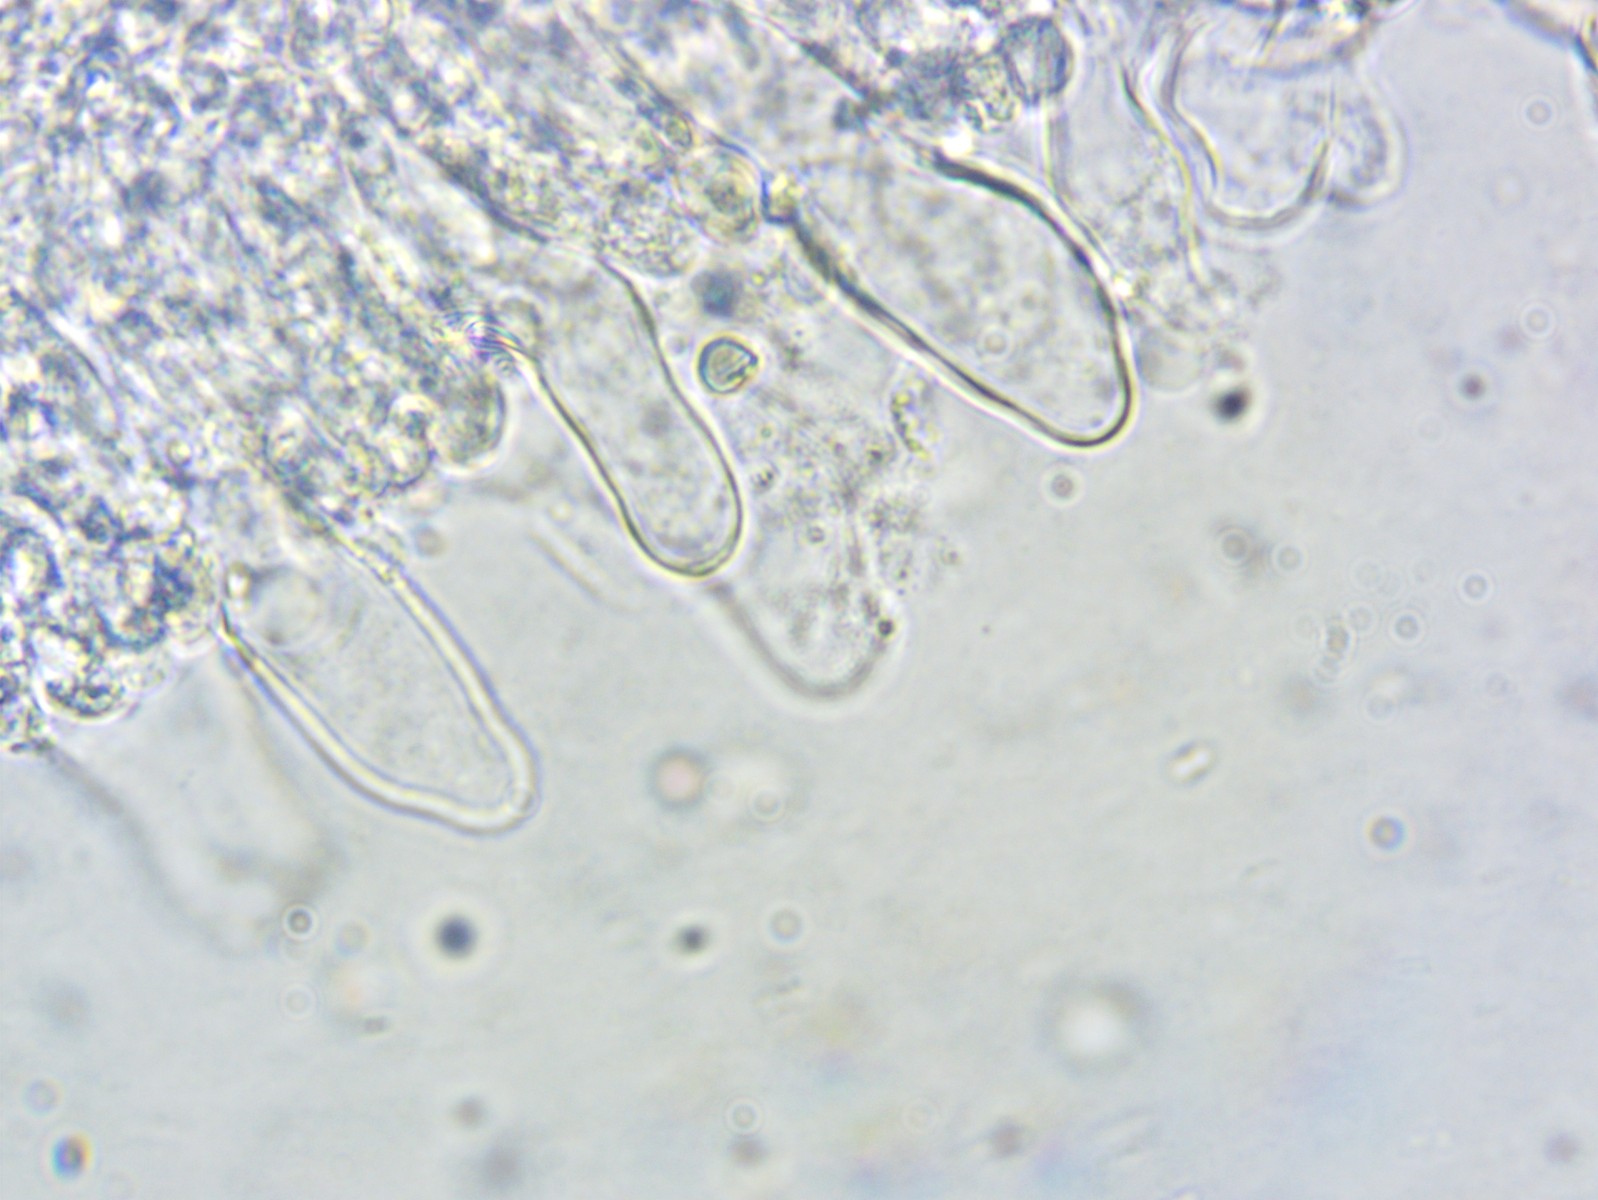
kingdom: Fungi
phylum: Basidiomycota
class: Agaricomycetes
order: Agaricales
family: Porotheleaceae
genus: Phloeomana
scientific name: Phloeomana minutula
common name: bleg huesvamp
